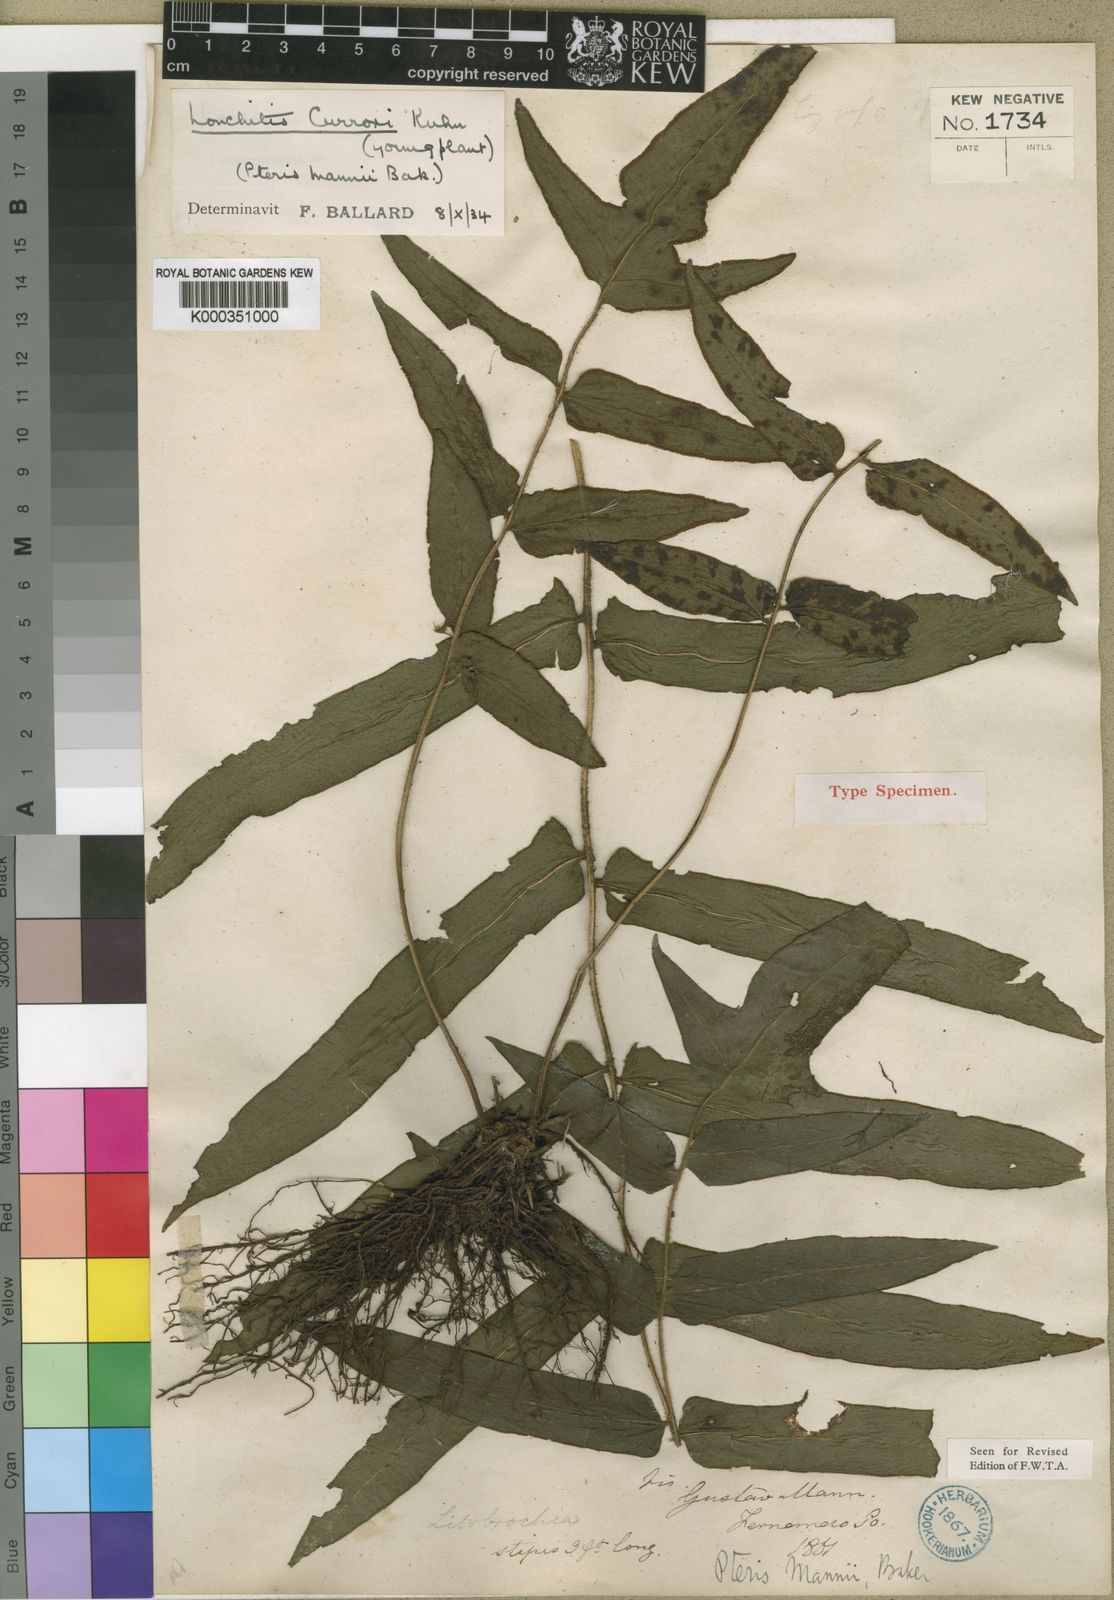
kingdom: Plantae
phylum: Tracheophyta
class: Polypodiopsida
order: Polypodiales
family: Dennstaedtiaceae
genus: Blotiella
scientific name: Blotiella currorii
